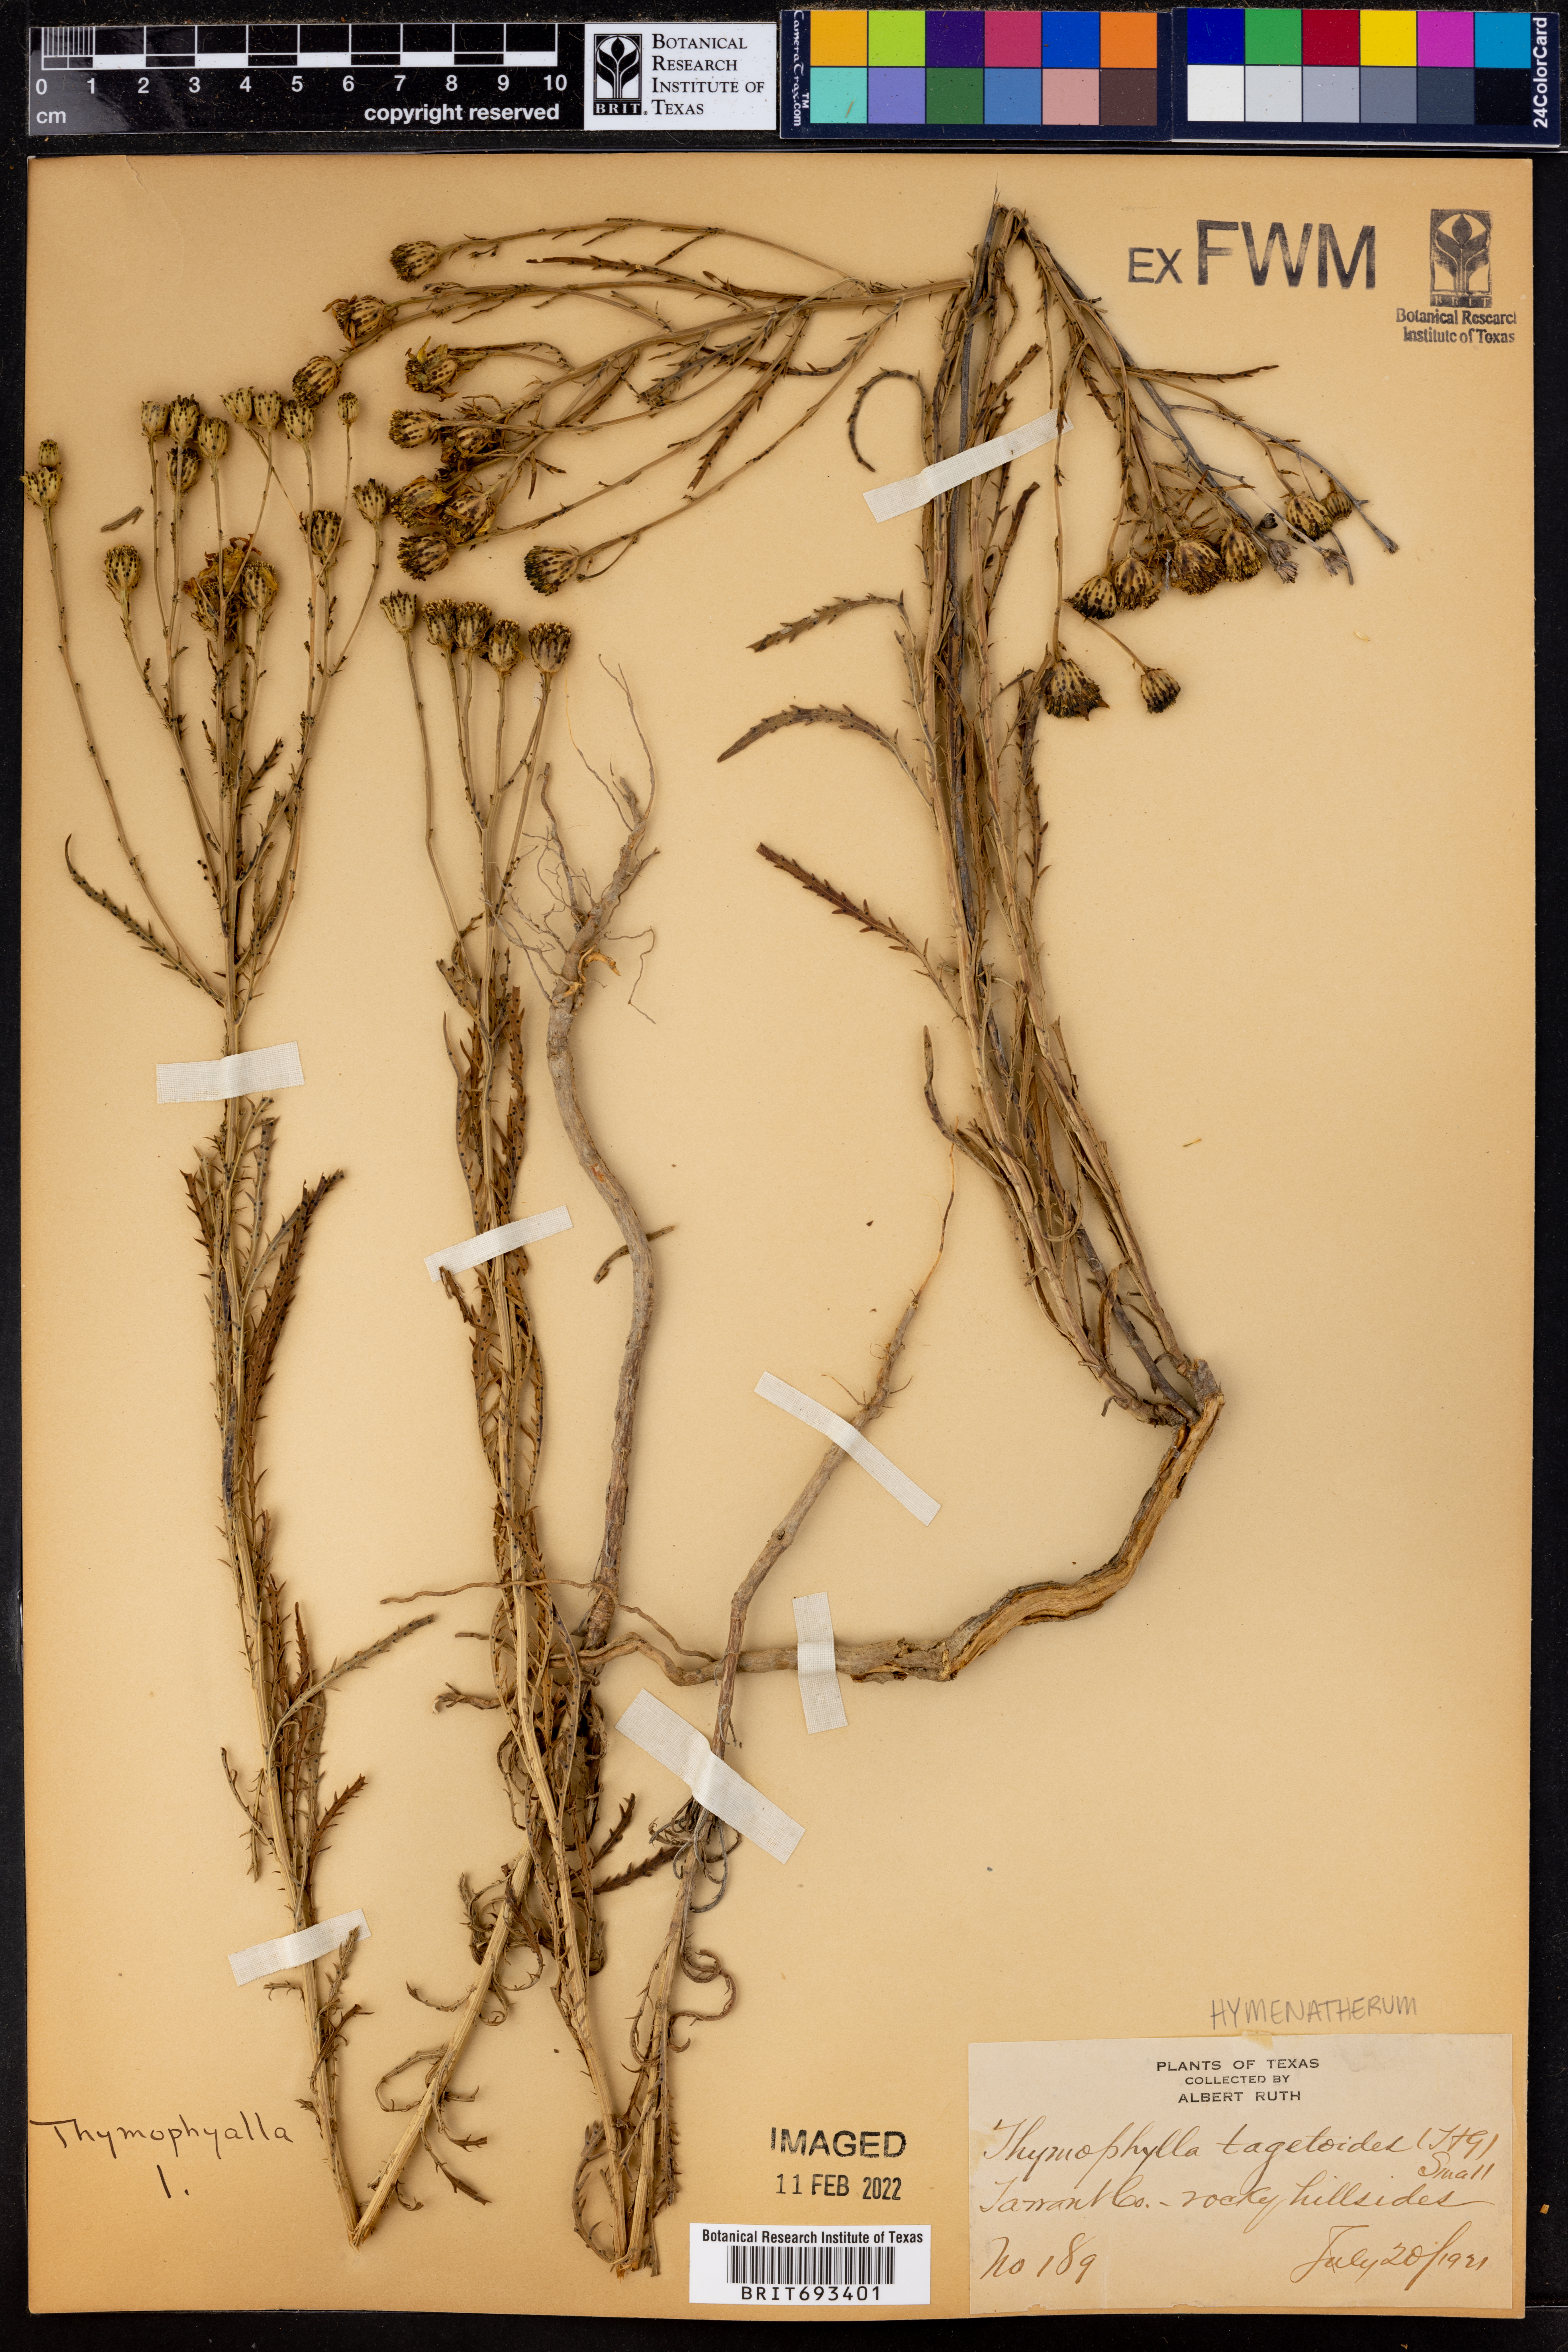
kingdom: Plantae
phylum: Tracheophyta
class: Magnoliopsida
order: Asterales
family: Asteraceae
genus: Dysodiopsis
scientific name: Dysodiopsis tagetoides
